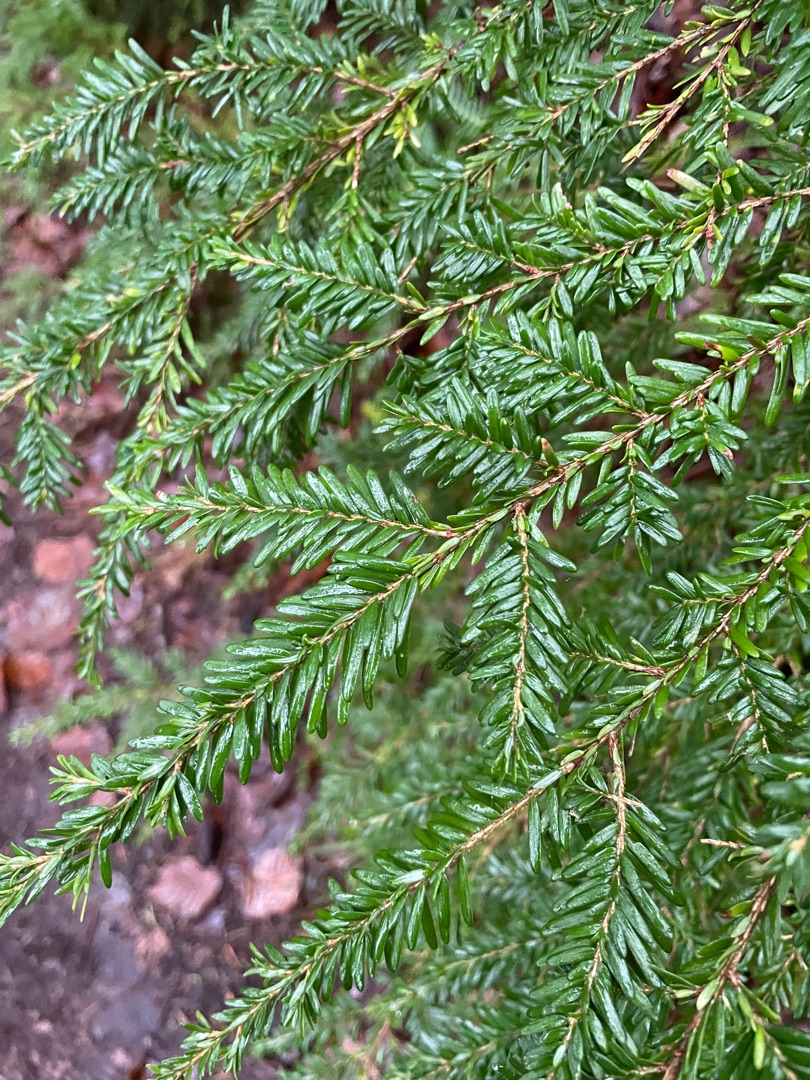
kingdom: Plantae
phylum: Tracheophyta
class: Pinopsida
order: Pinales
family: Pinaceae
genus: Tsuga
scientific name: Tsuga heterophylla
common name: Skarntydegran
